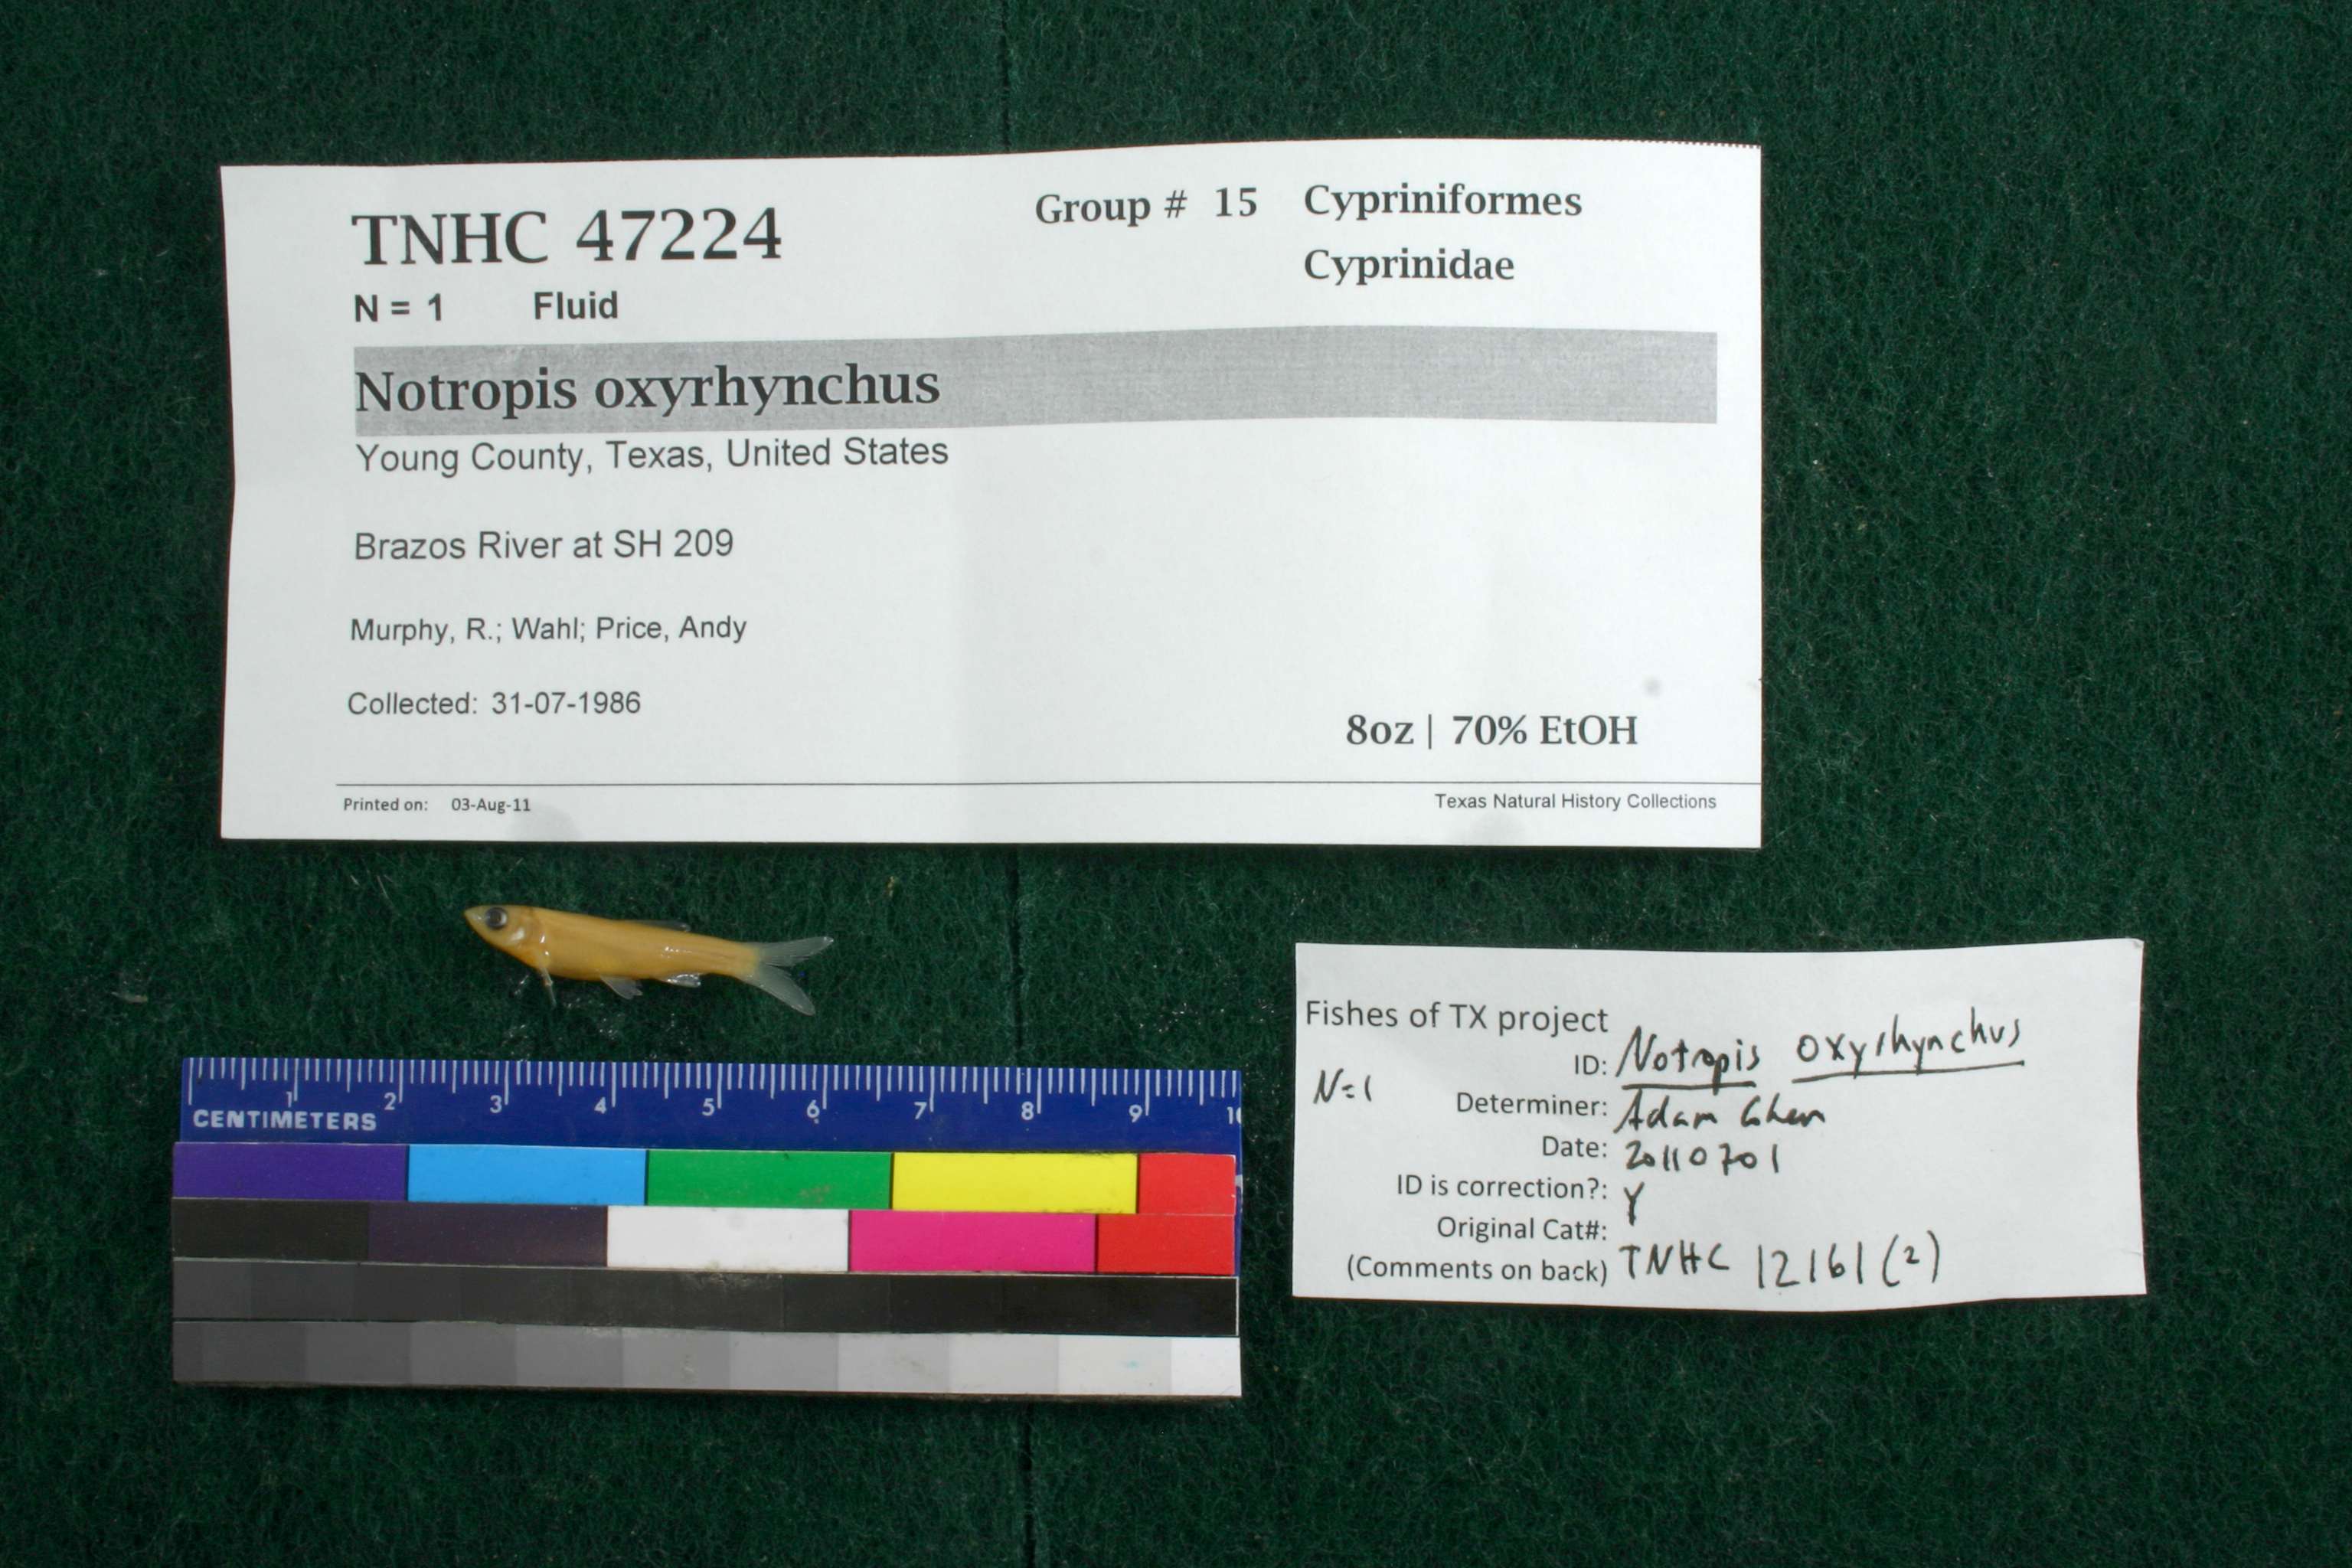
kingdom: Animalia
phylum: Chordata
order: Cypriniformes
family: Cyprinidae
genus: Notropis
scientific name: Notropis oxyrhynchus
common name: Sharpnose shiner
